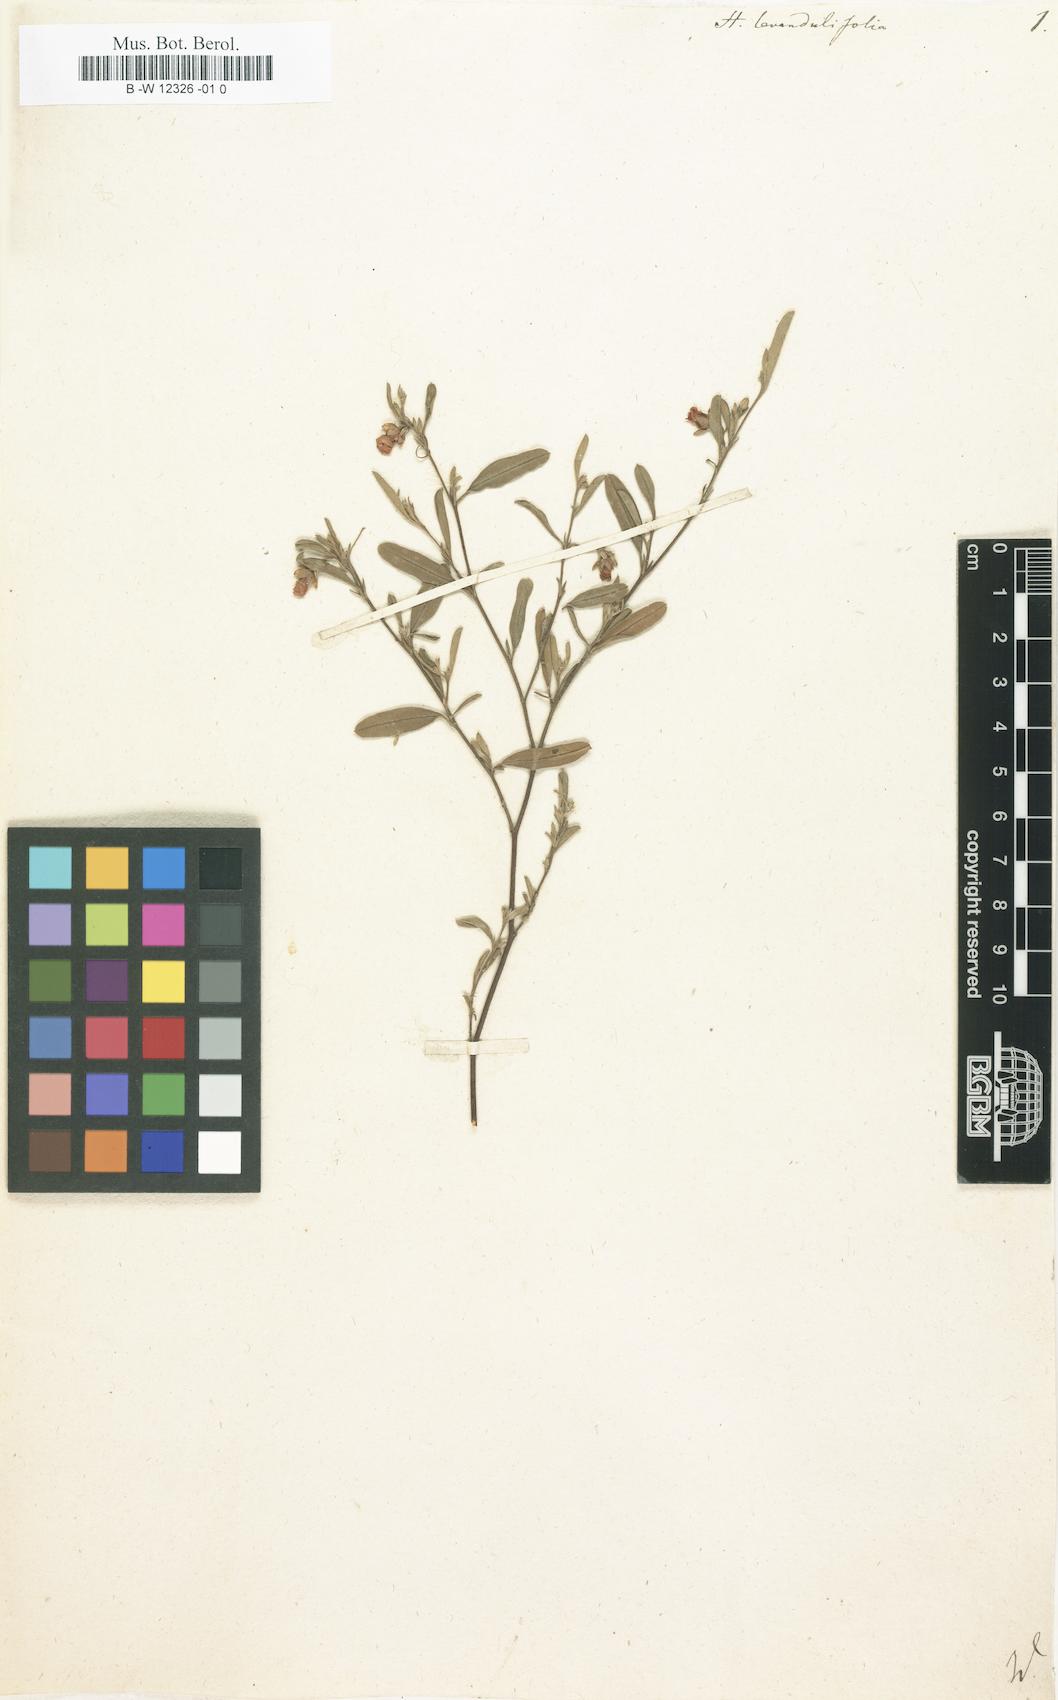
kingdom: Plantae
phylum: Tracheophyta
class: Magnoliopsida
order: Malvales
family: Malvaceae
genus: Hermannia
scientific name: Hermannia lavandulifolia
